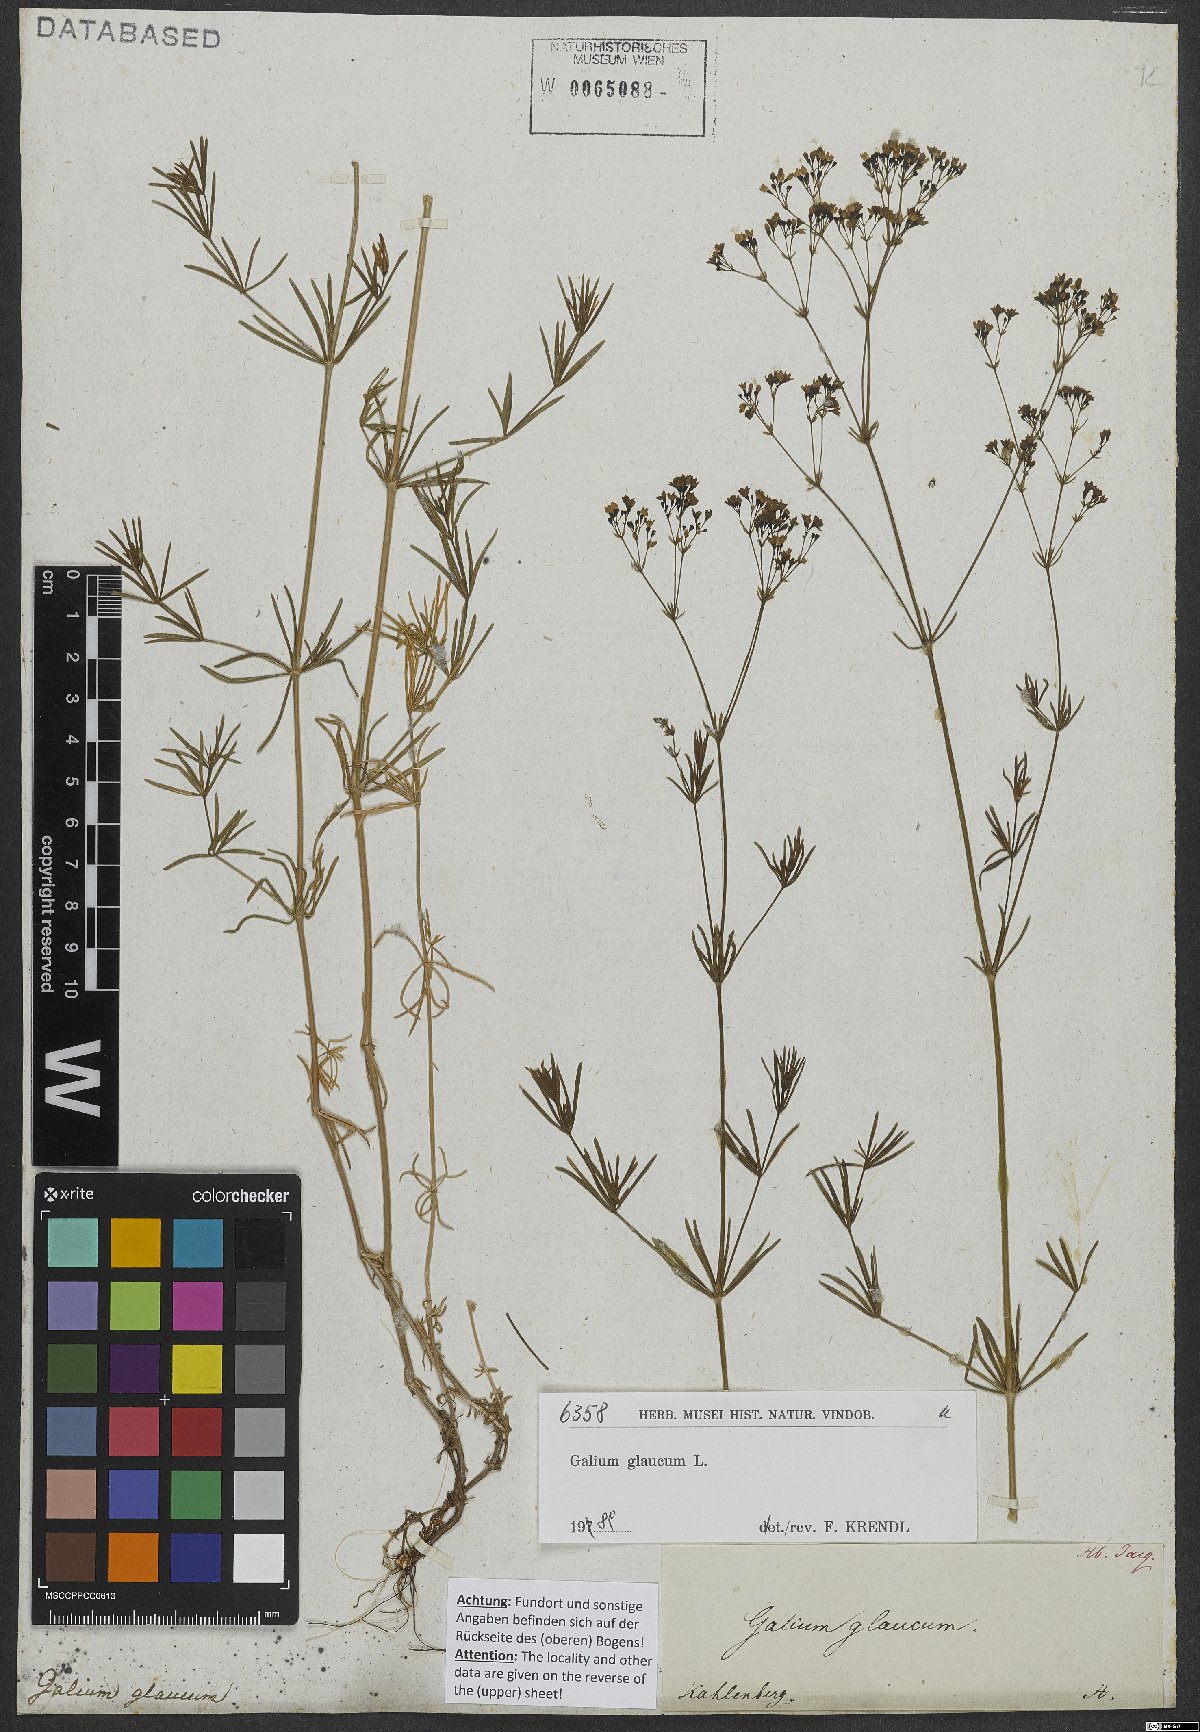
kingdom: Plantae
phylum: Tracheophyta
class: Magnoliopsida
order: Gentianales
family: Rubiaceae
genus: Galium
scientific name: Galium glaucum
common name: Waxy bedstraw
